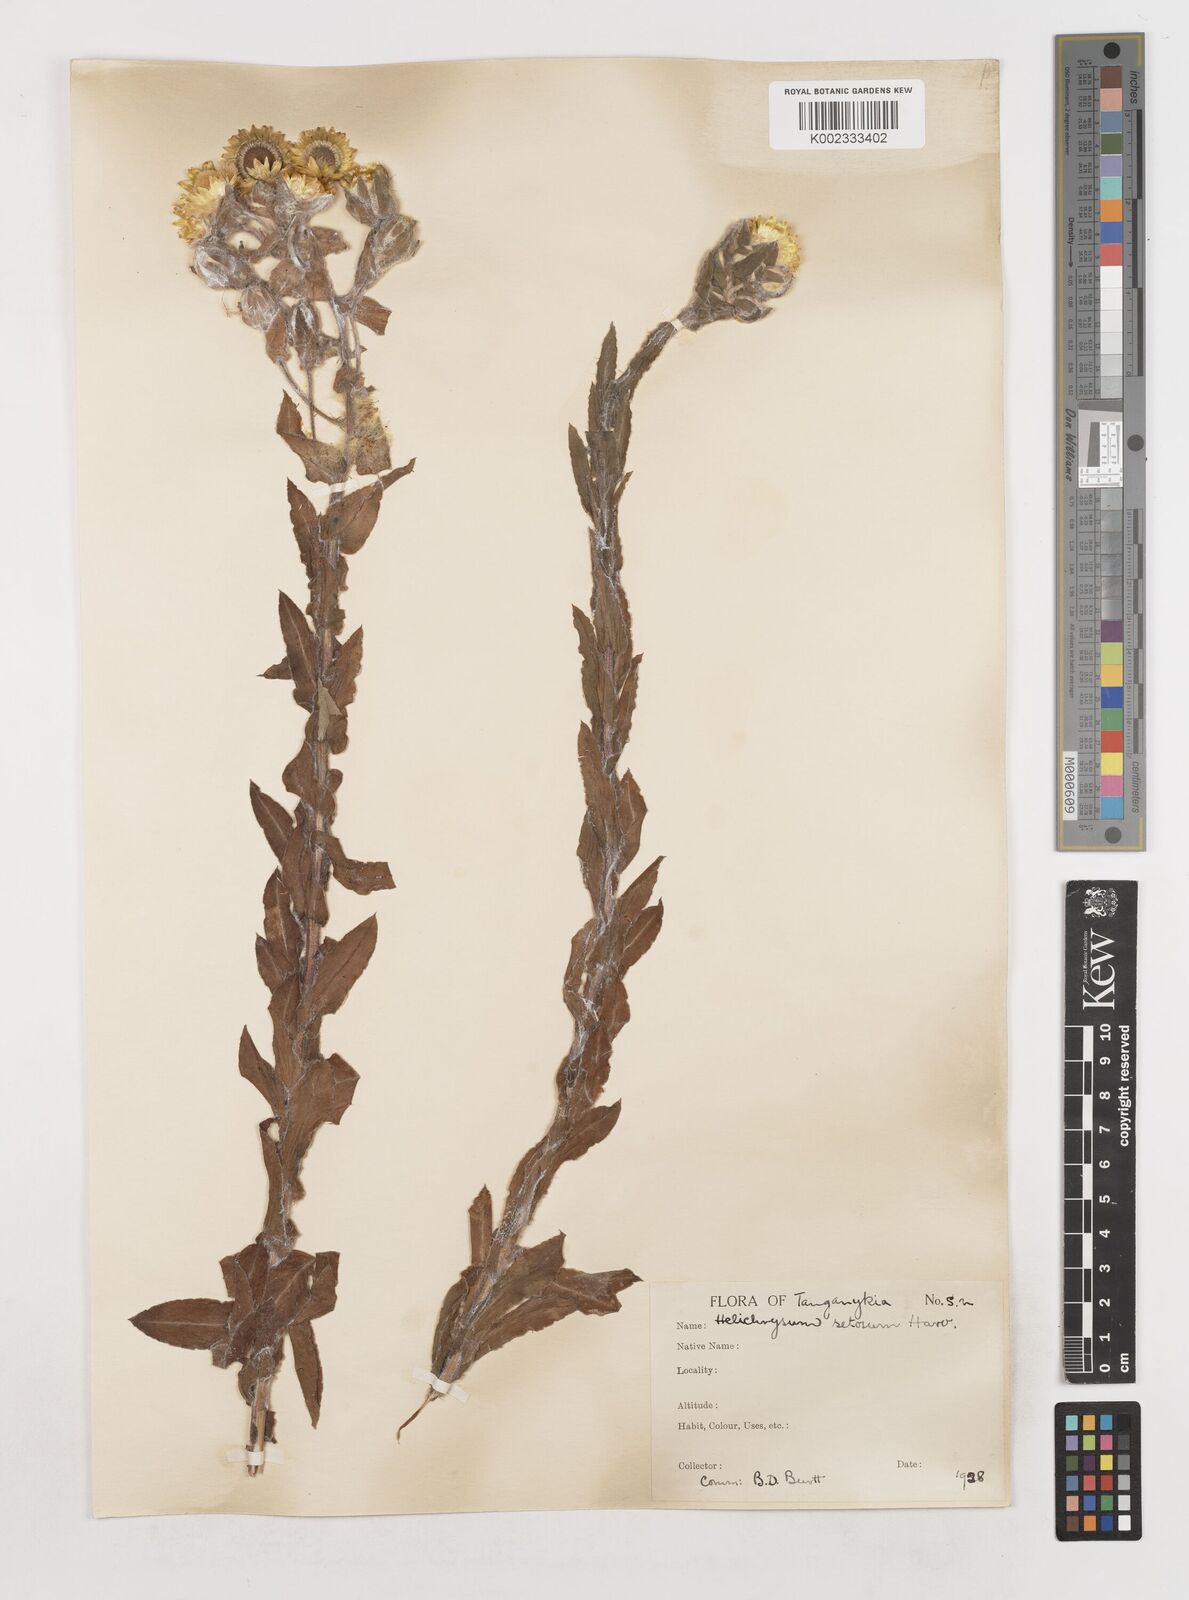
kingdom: Plantae
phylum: Tracheophyta
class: Magnoliopsida
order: Asterales
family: Asteraceae
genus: Helichrysum
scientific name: Helichrysum setosum
